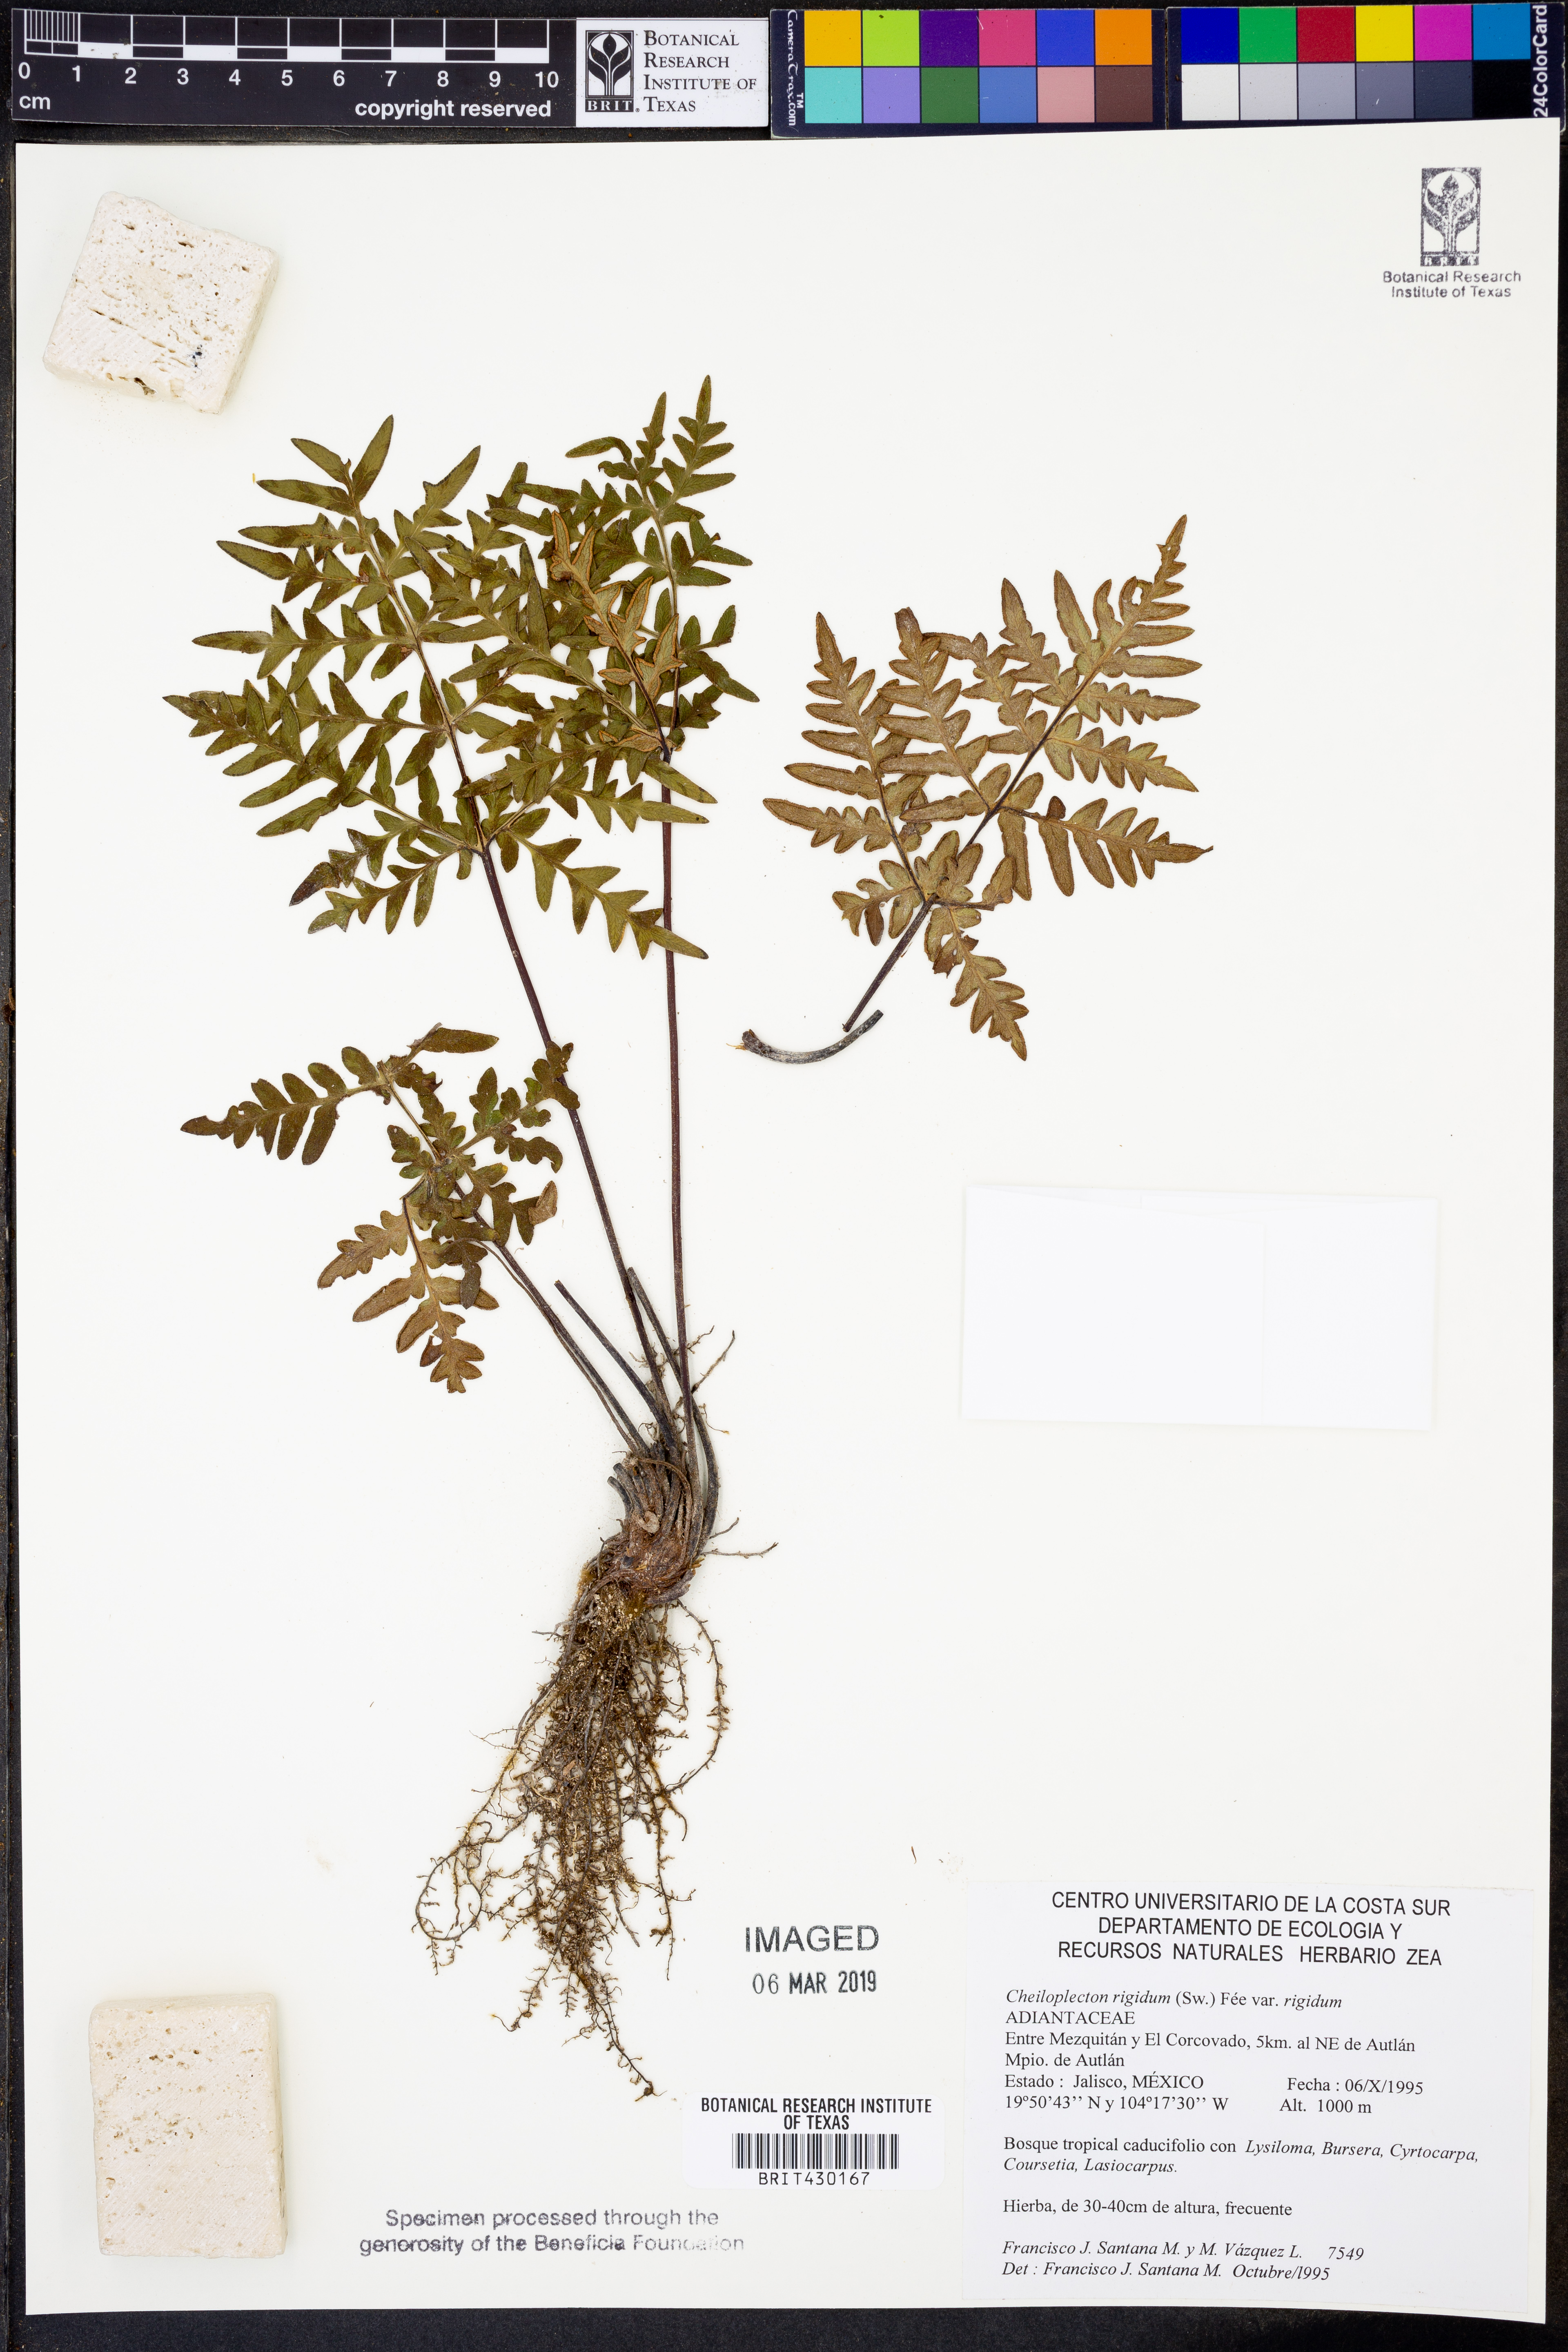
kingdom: Plantae
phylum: Tracheophyta
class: Polypodiopsida
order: Polypodiales
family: Pteridaceae
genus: Cheiloplecton
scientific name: Cheiloplecton rigidum
